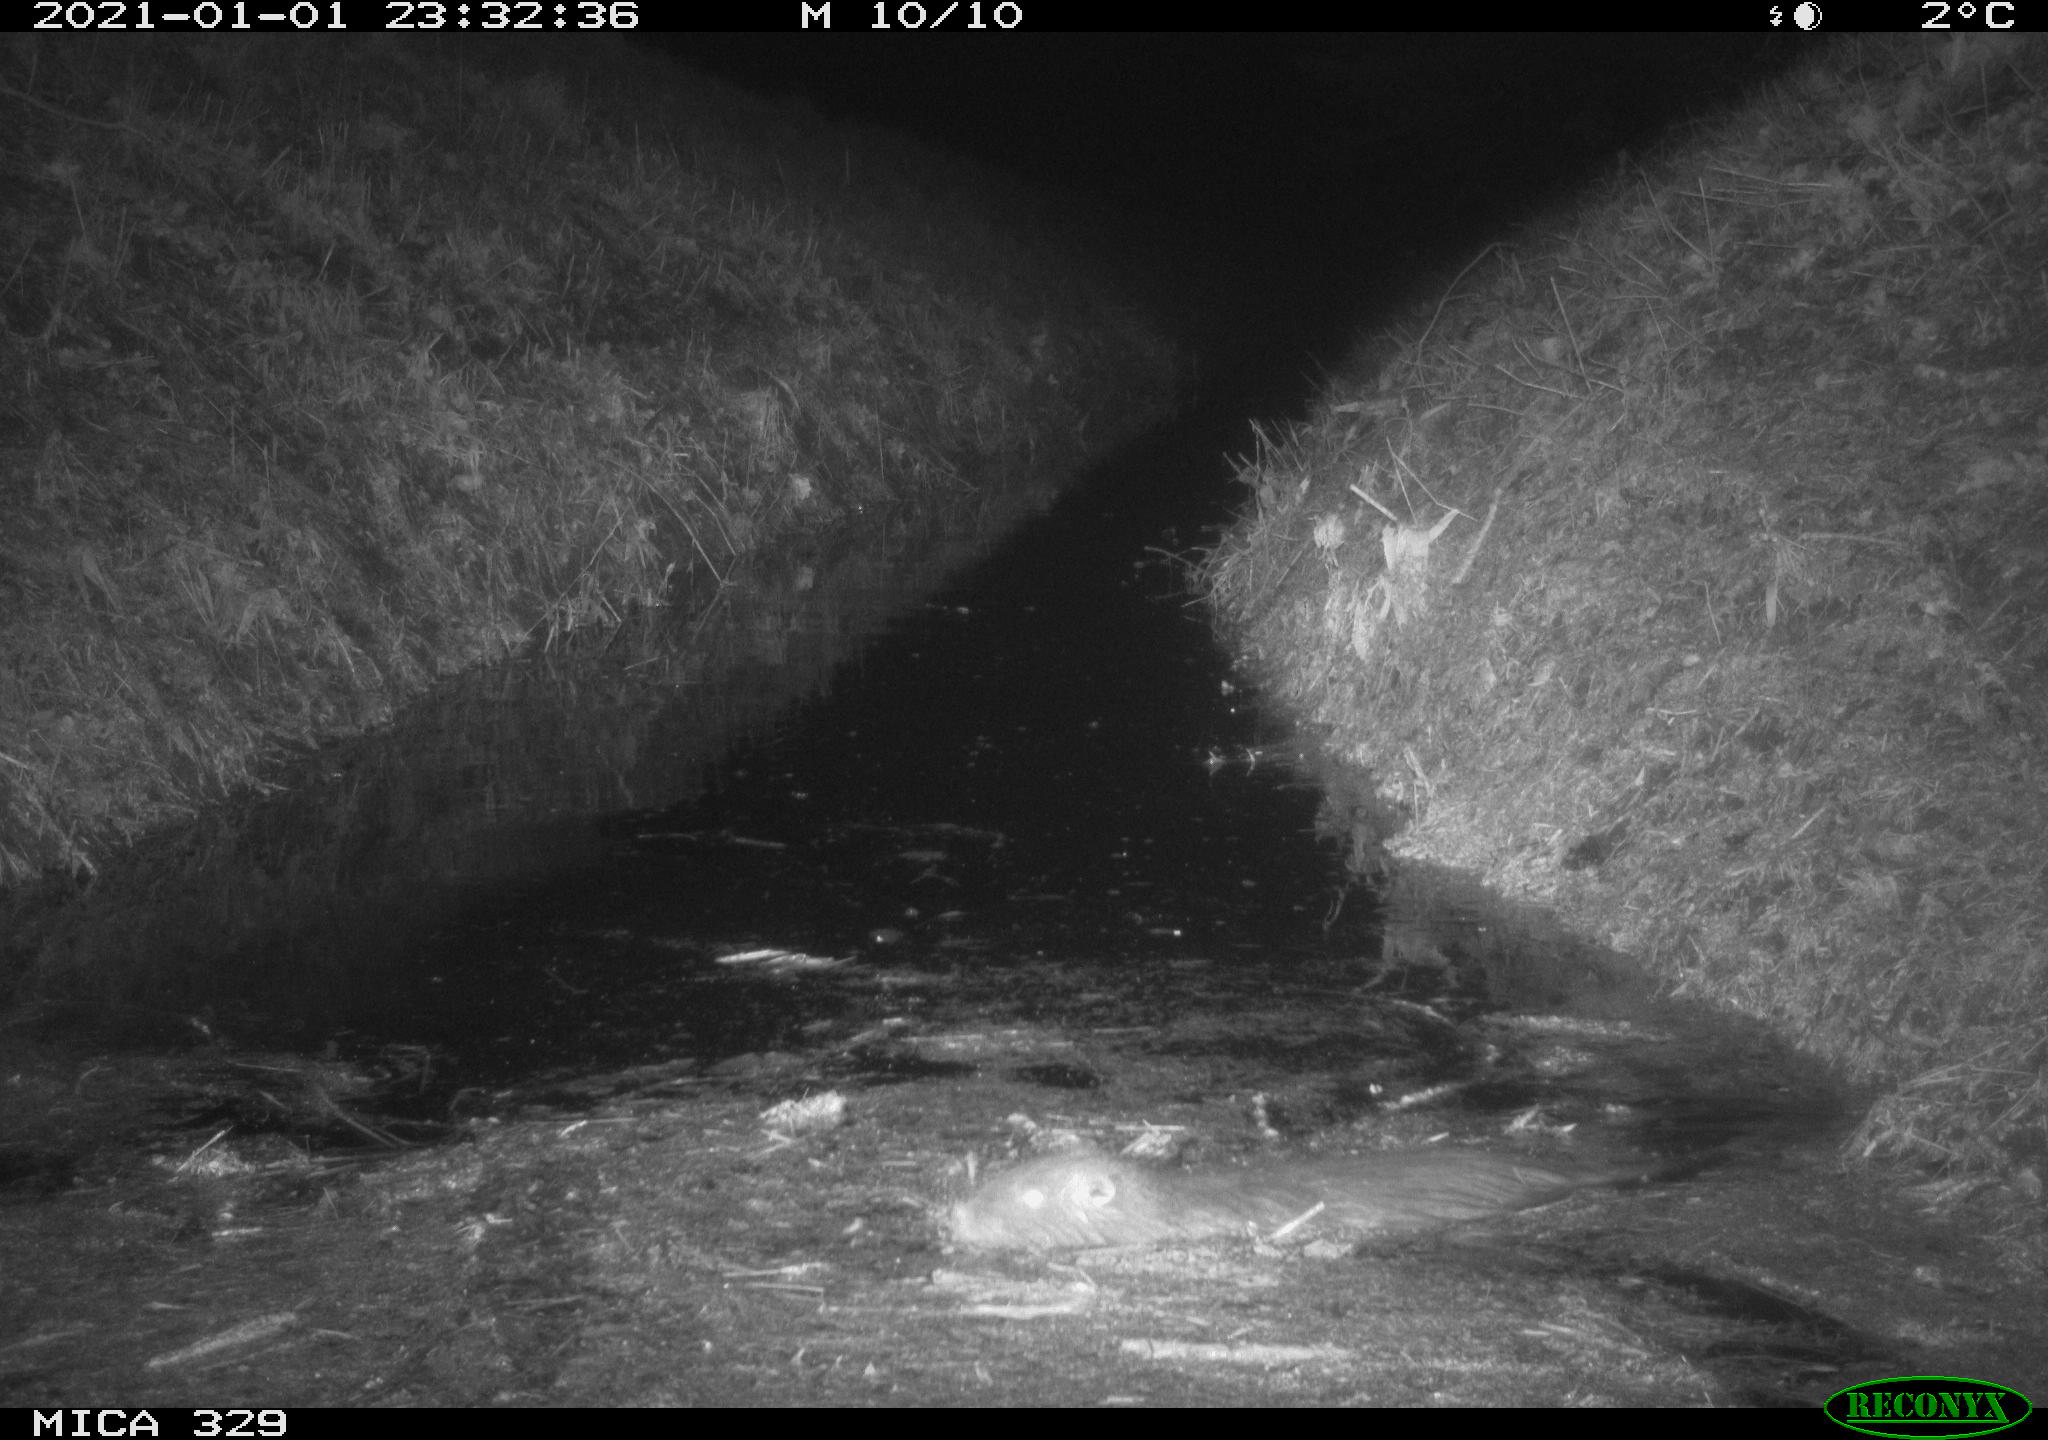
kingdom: Animalia
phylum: Chordata
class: Mammalia
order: Rodentia
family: Myocastoridae
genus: Myocastor
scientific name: Myocastor coypus
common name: Coypu
